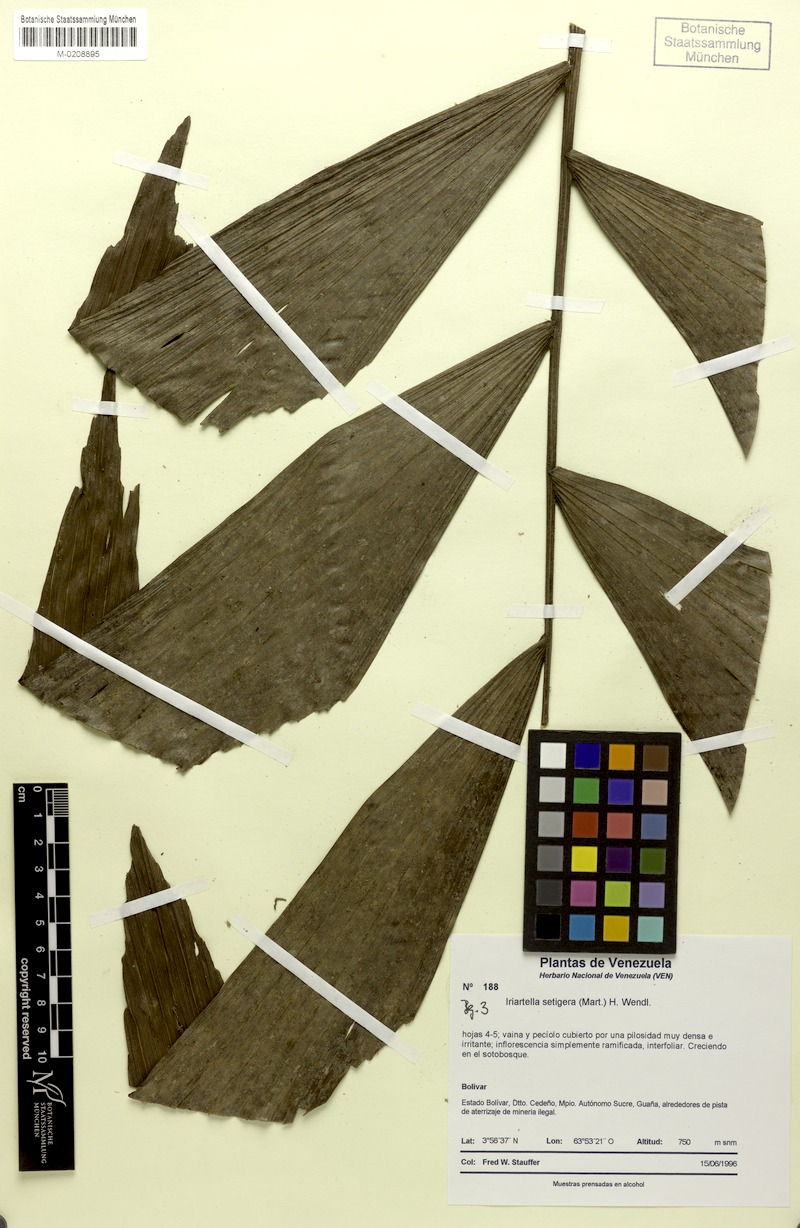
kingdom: Plantae
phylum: Tracheophyta
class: Liliopsida
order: Arecales
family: Arecaceae
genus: Iriartella
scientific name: Iriartella setigera
